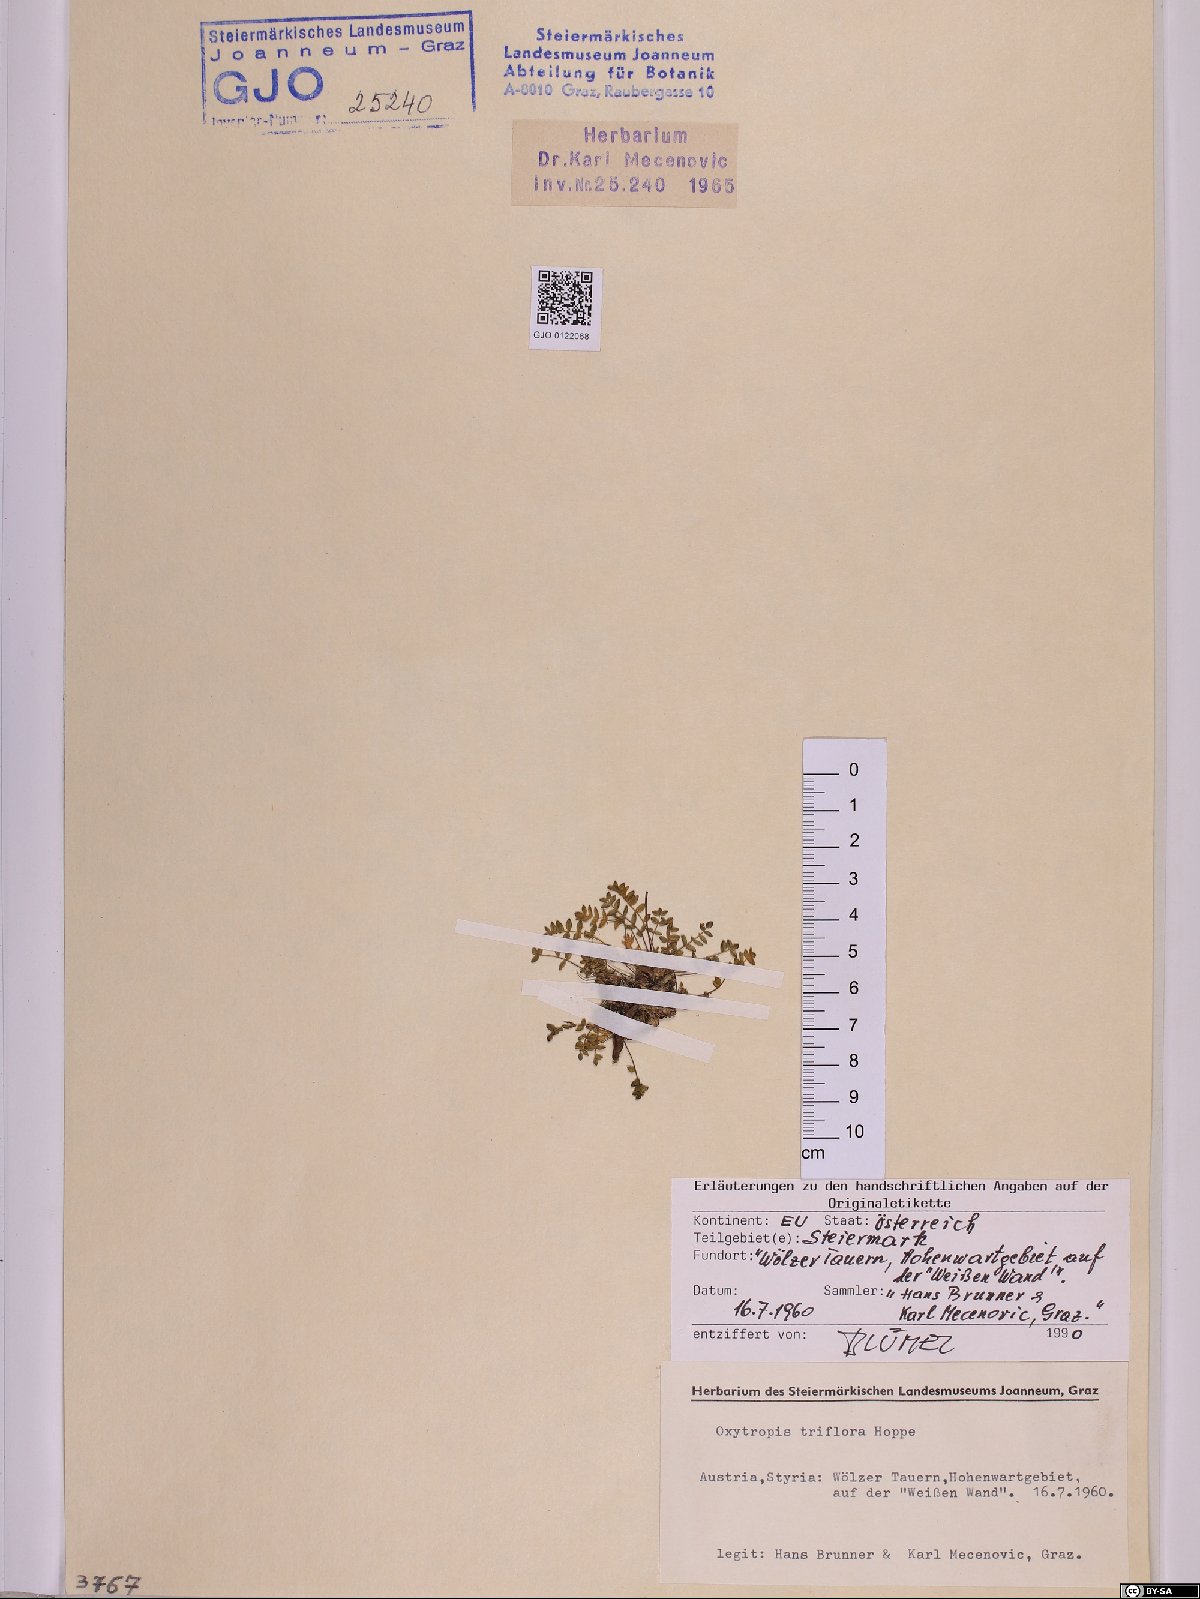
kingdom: Plantae
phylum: Tracheophyta
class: Magnoliopsida
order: Fabales
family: Fabaceae
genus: Oxytropis
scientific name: Oxytropis triflora
